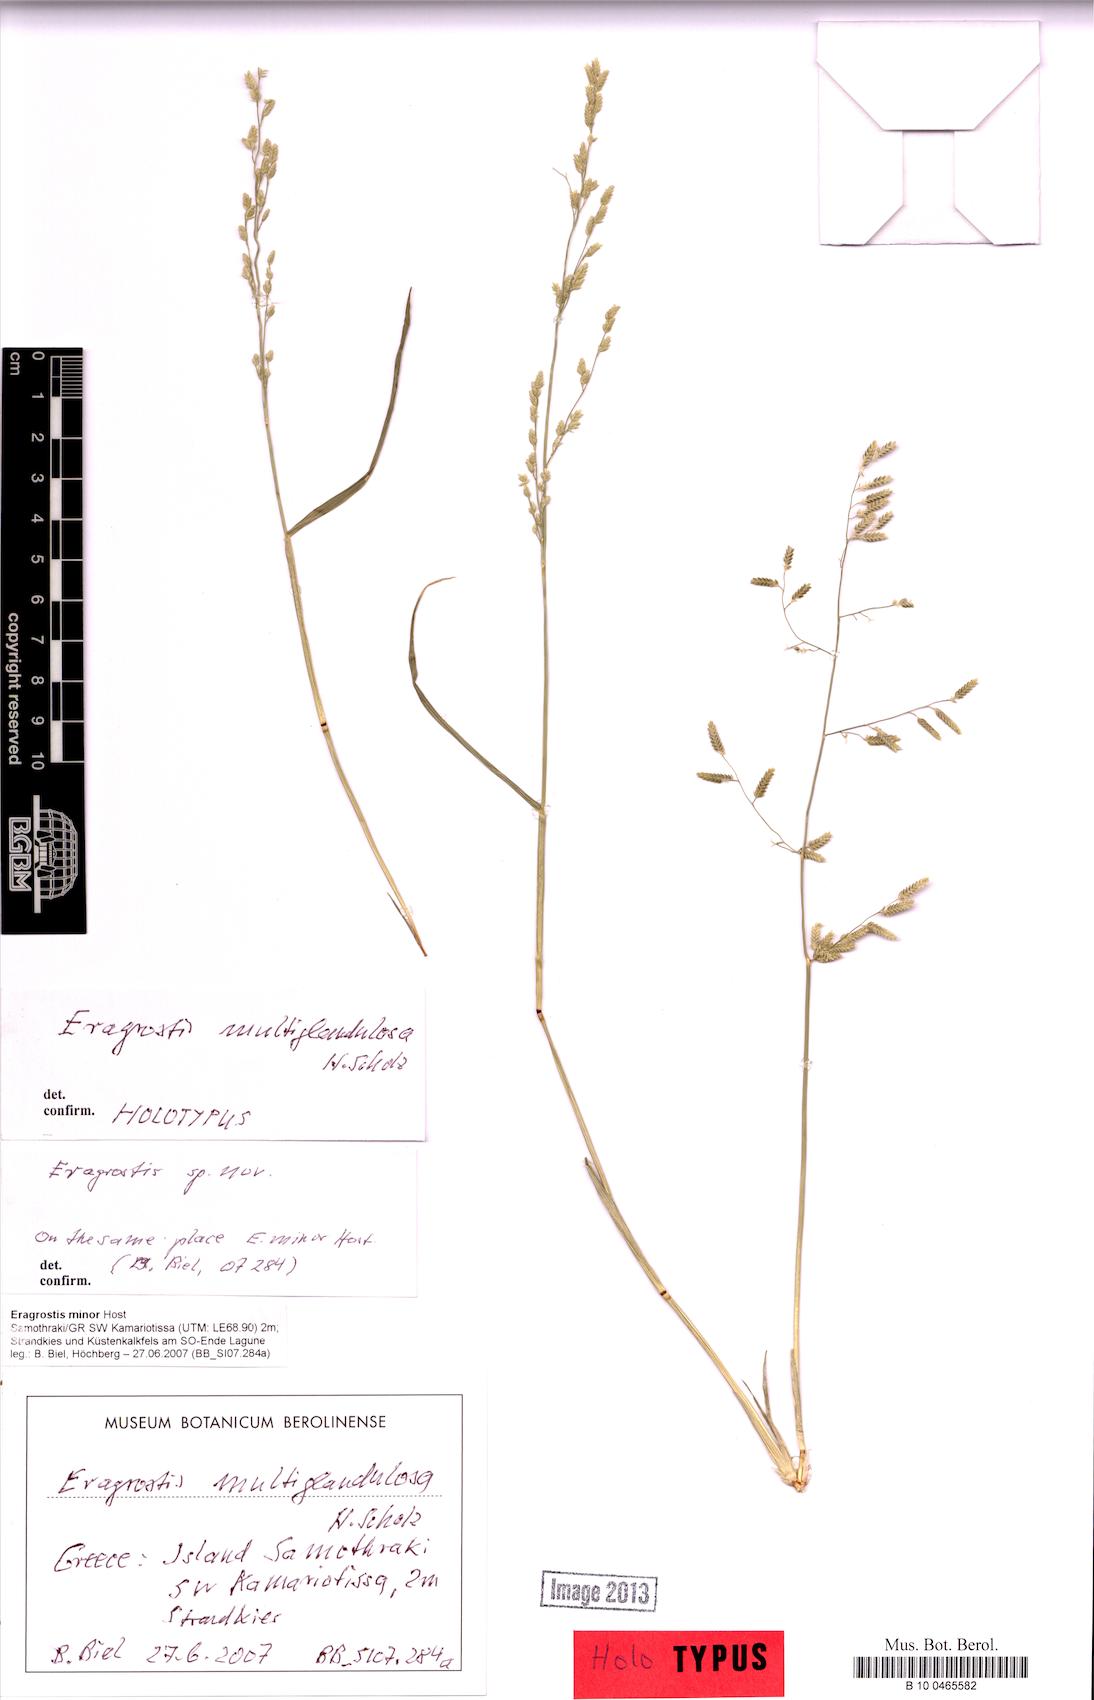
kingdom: Plantae
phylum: Tracheophyta
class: Liliopsida
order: Poales
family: Poaceae
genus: Eragrostis
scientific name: Eragrostis cilianensis
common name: Stinkgrass
